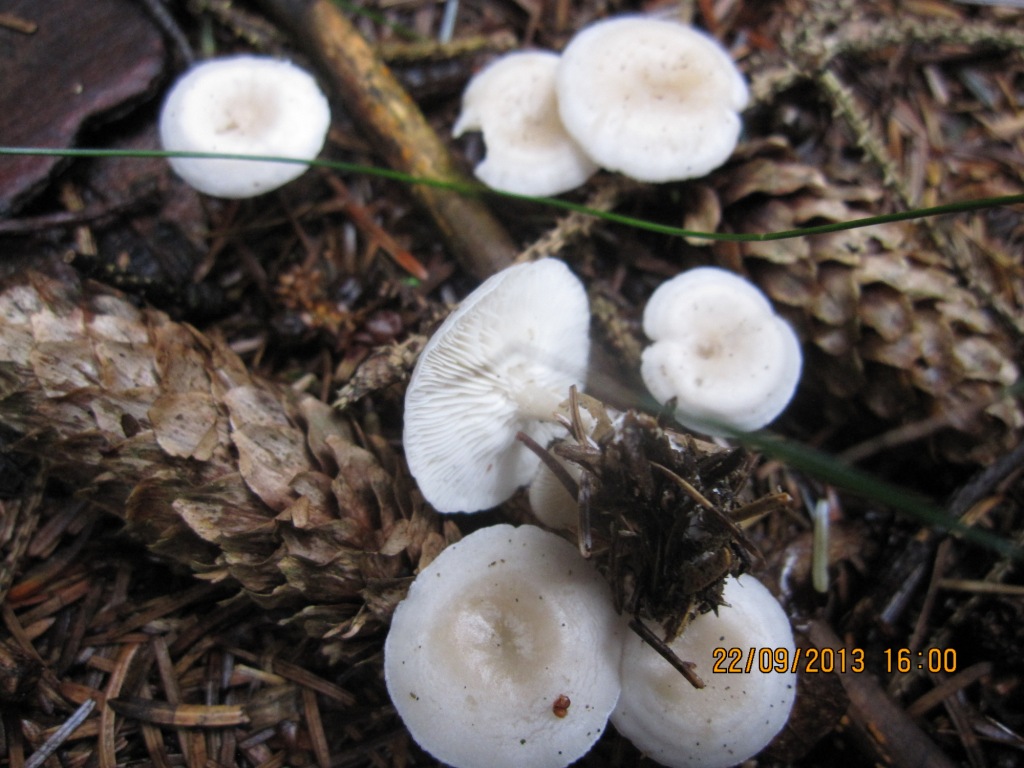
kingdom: Fungi
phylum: Basidiomycota
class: Agaricomycetes
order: Agaricales
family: Tricholomataceae
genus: Leucocybe
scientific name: Leucocybe candicans
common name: kridt-tragthat
